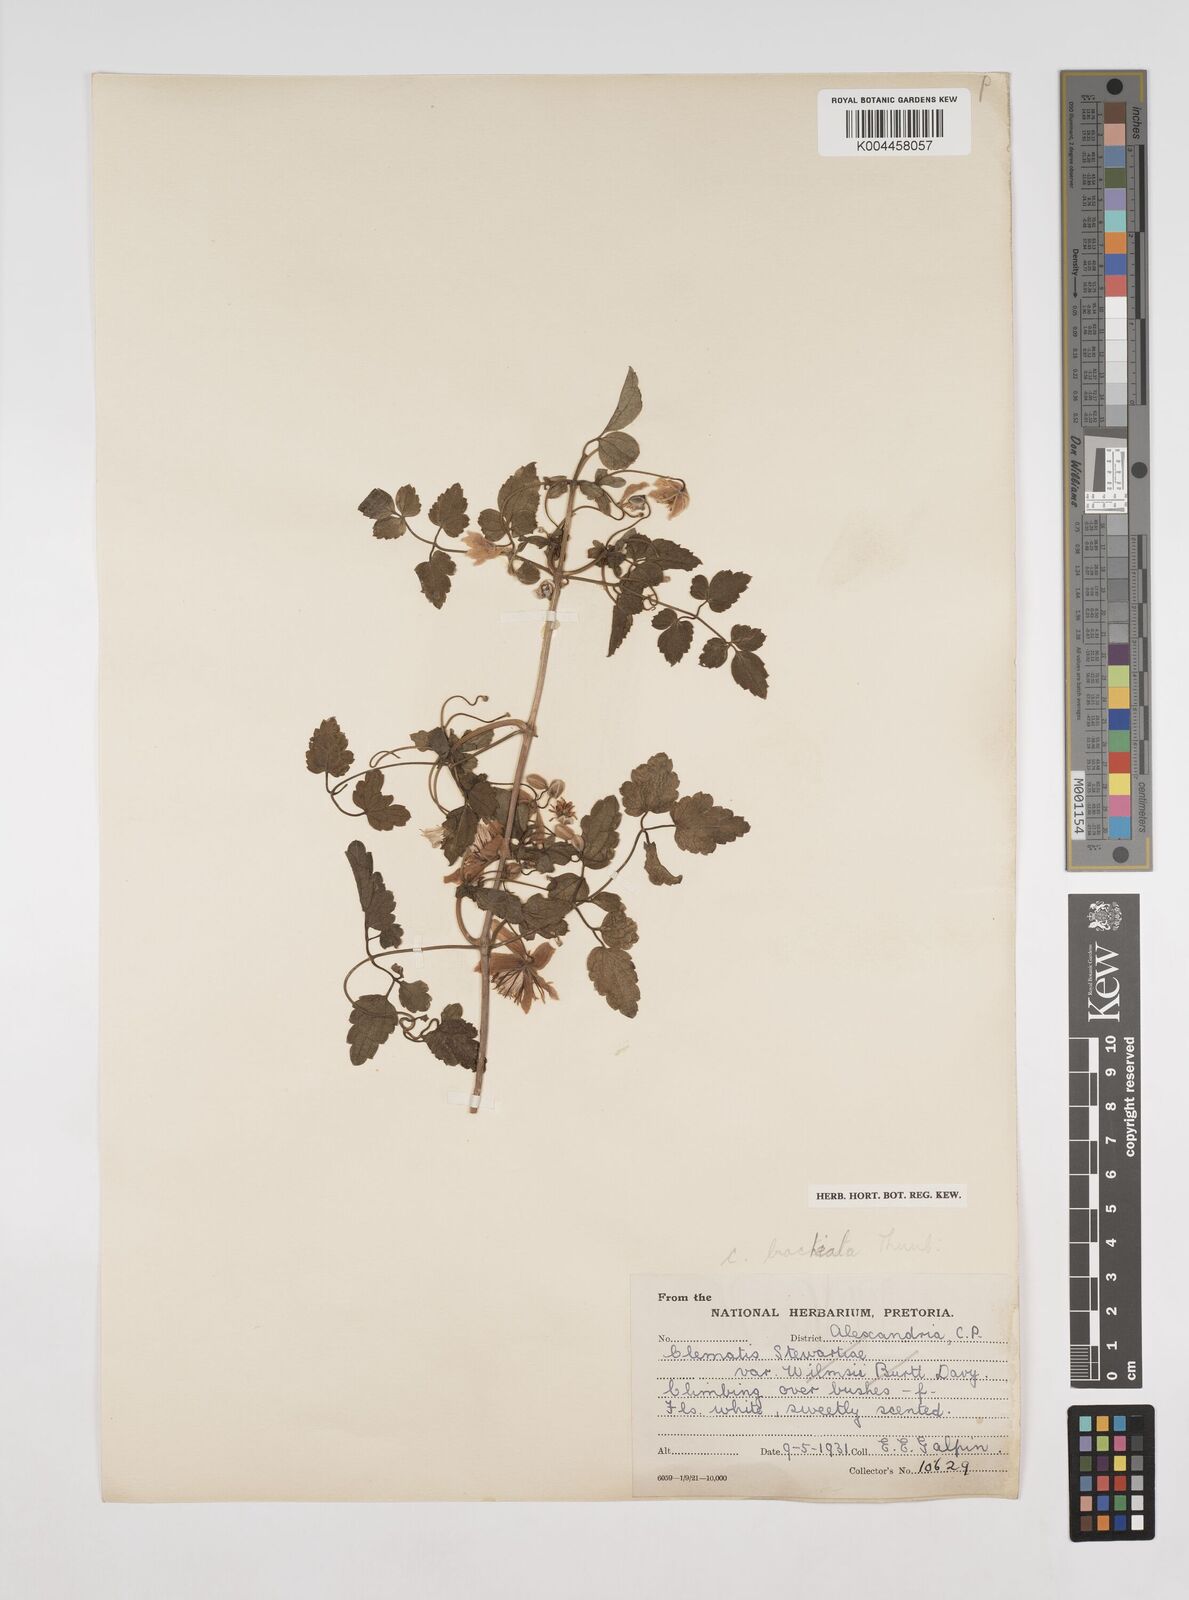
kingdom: Plantae
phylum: Tracheophyta
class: Magnoliopsida
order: Ranunculales
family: Ranunculaceae
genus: Clematis
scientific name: Clematis brachiata
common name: Traveler's-joy
